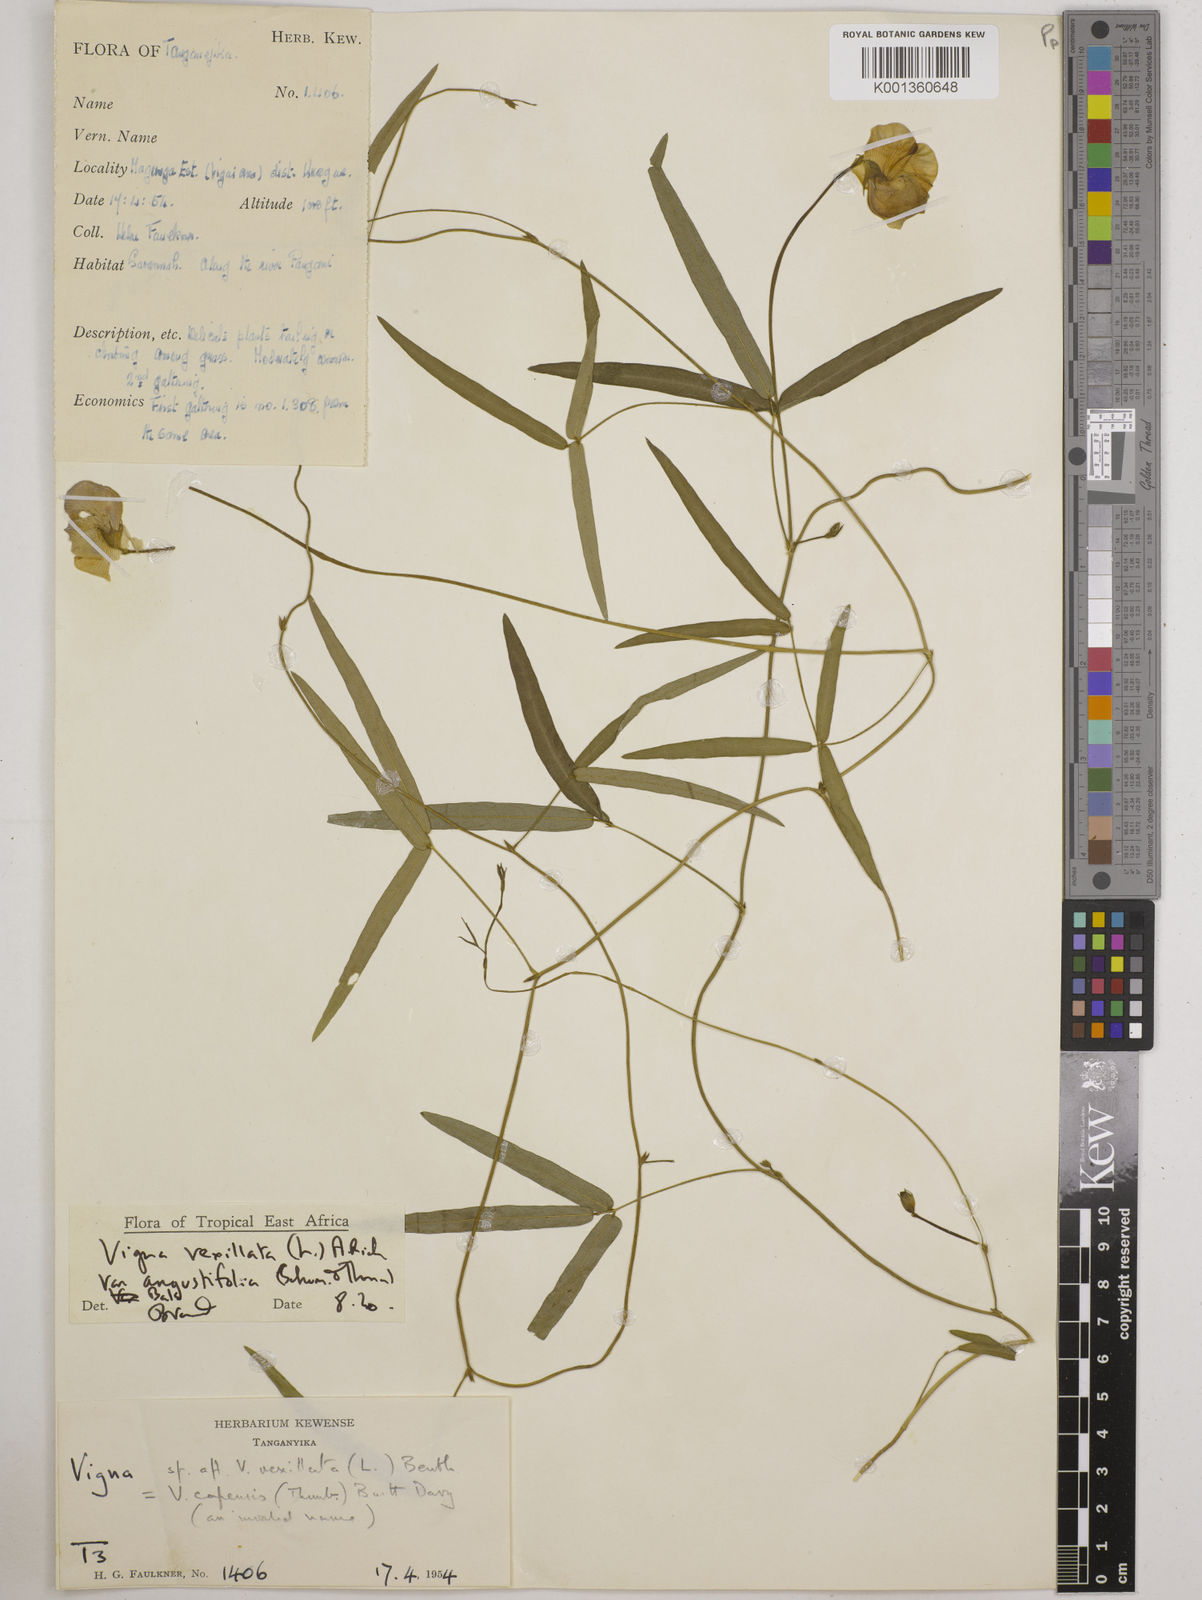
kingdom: Plantae
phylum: Tracheophyta
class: Magnoliopsida
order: Fabales
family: Fabaceae
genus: Vigna
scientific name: Vigna vexillata
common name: Zombi pea
